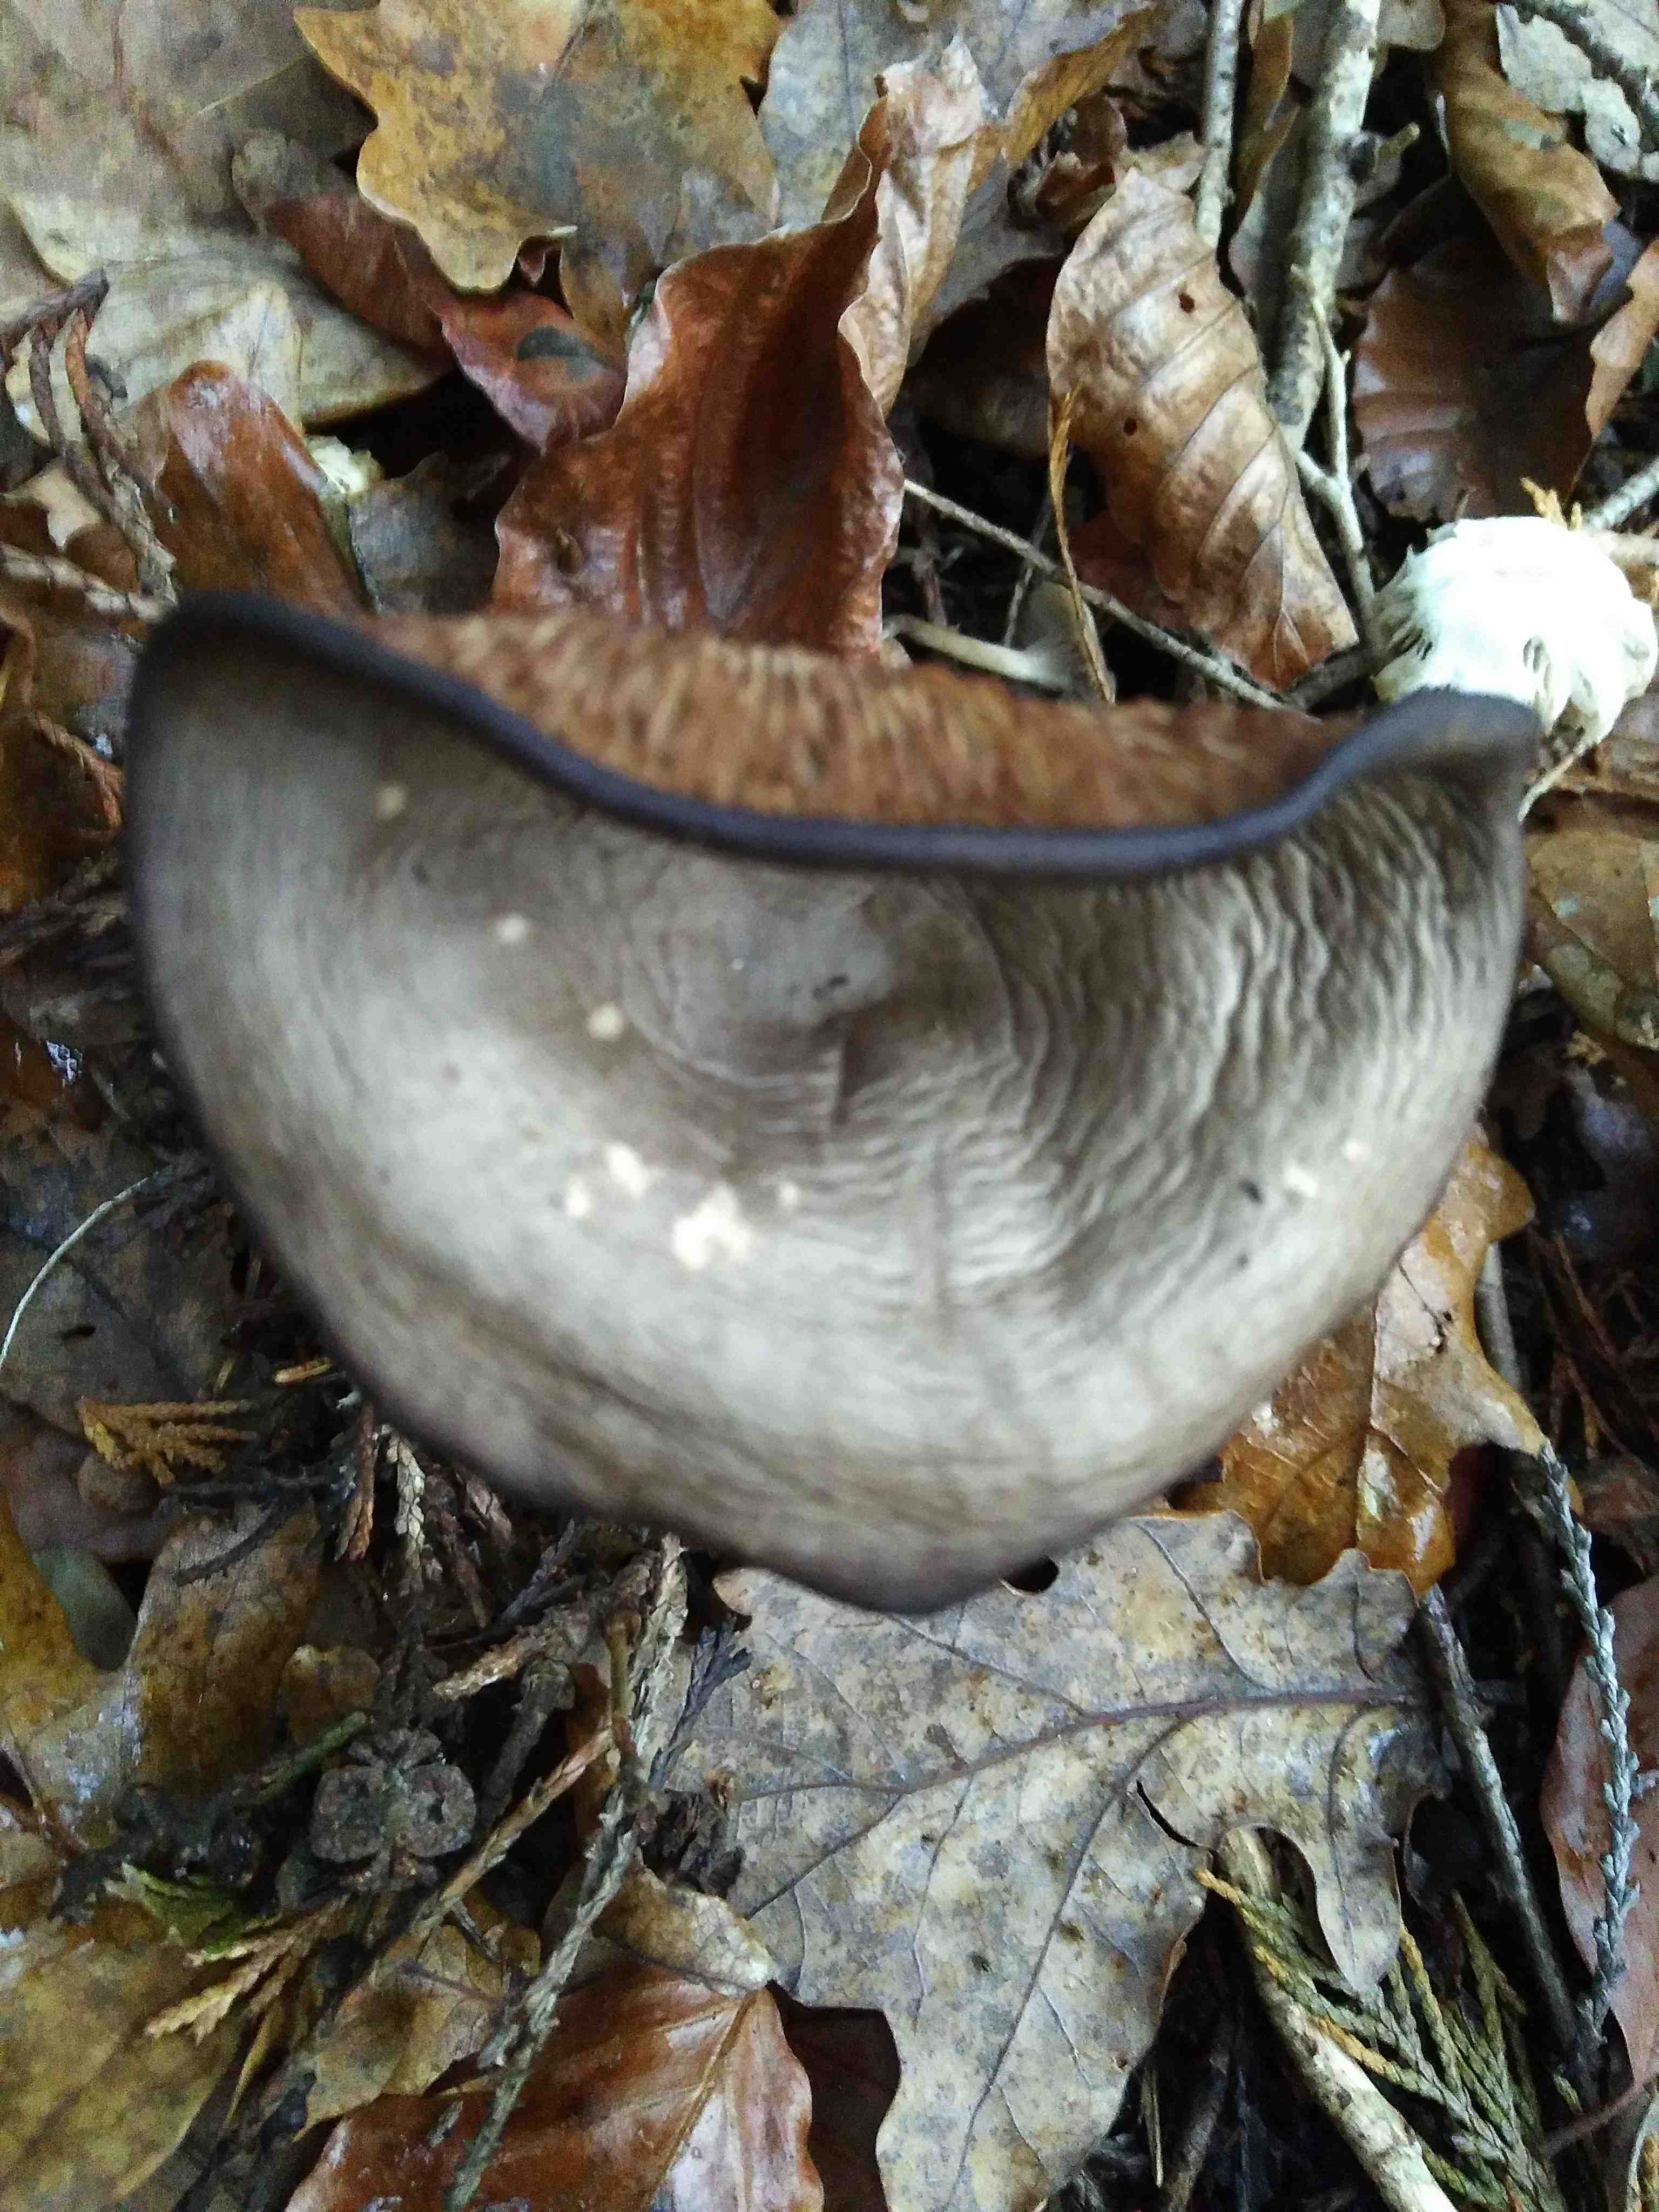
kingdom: Fungi
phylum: Basidiomycota
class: Agaricomycetes
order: Agaricales
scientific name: Agaricales
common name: champignonordenen
